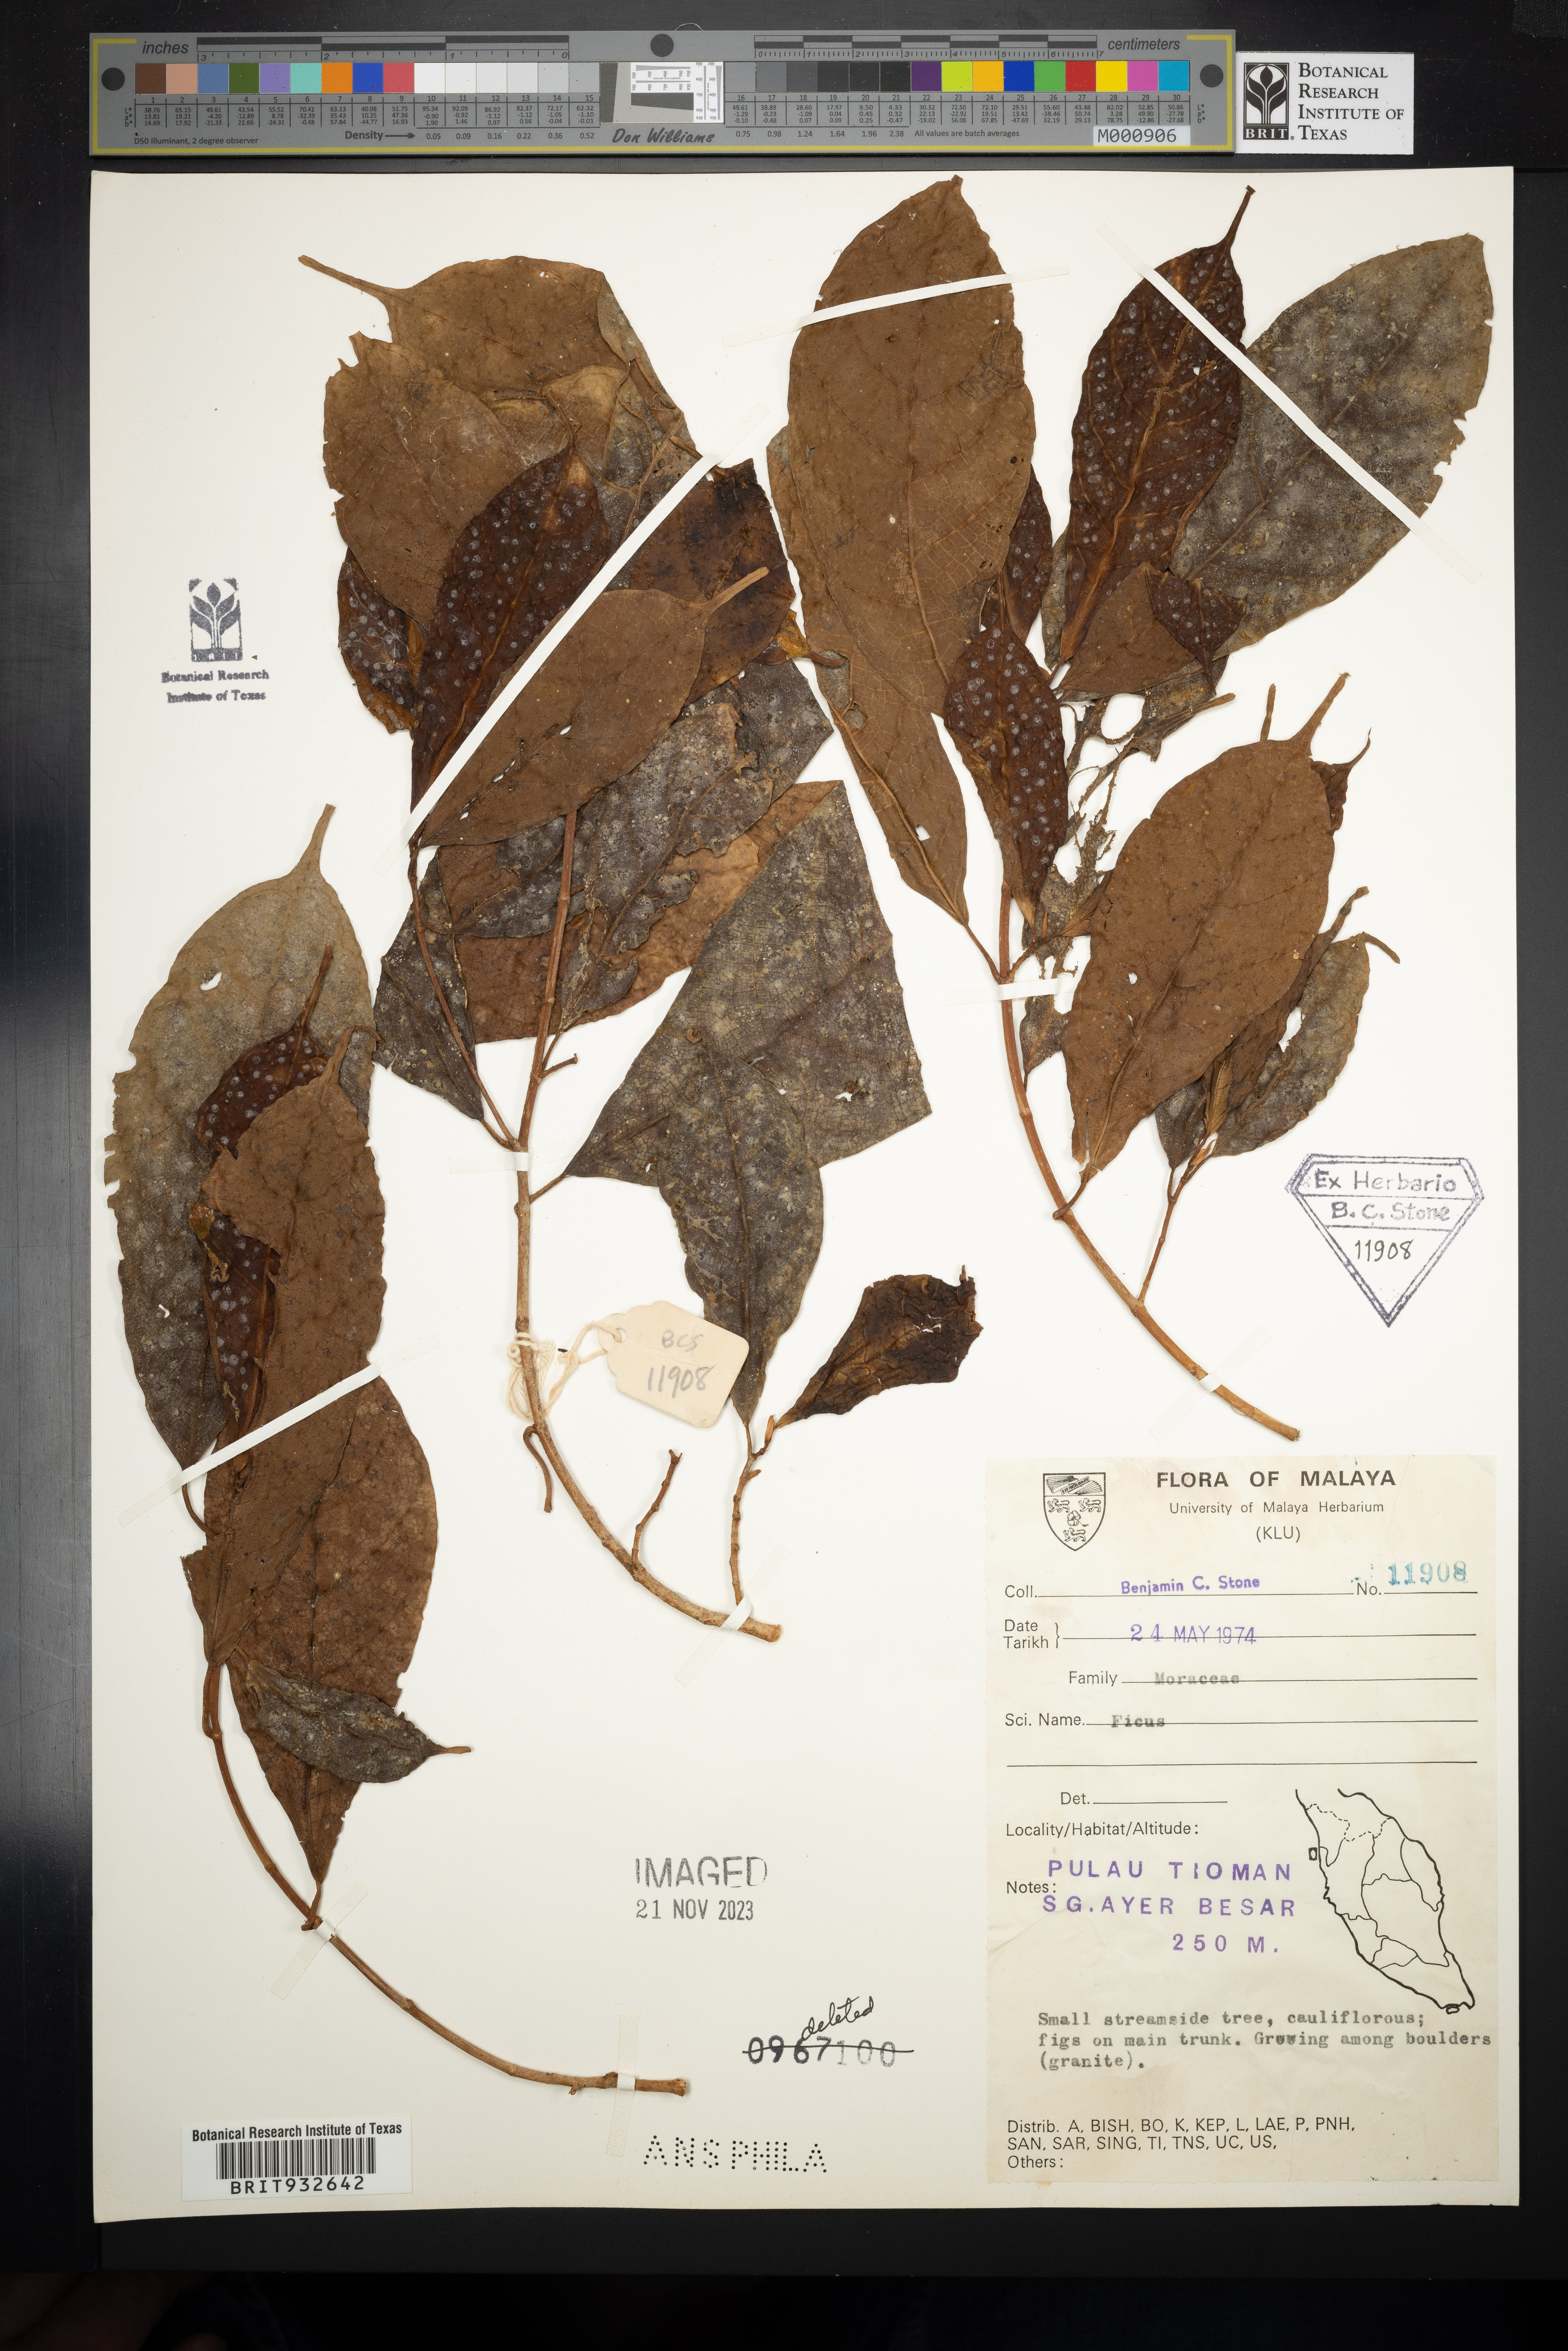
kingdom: Plantae
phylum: Tracheophyta
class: Magnoliopsida
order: Rosales
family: Moraceae
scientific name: Moraceae
